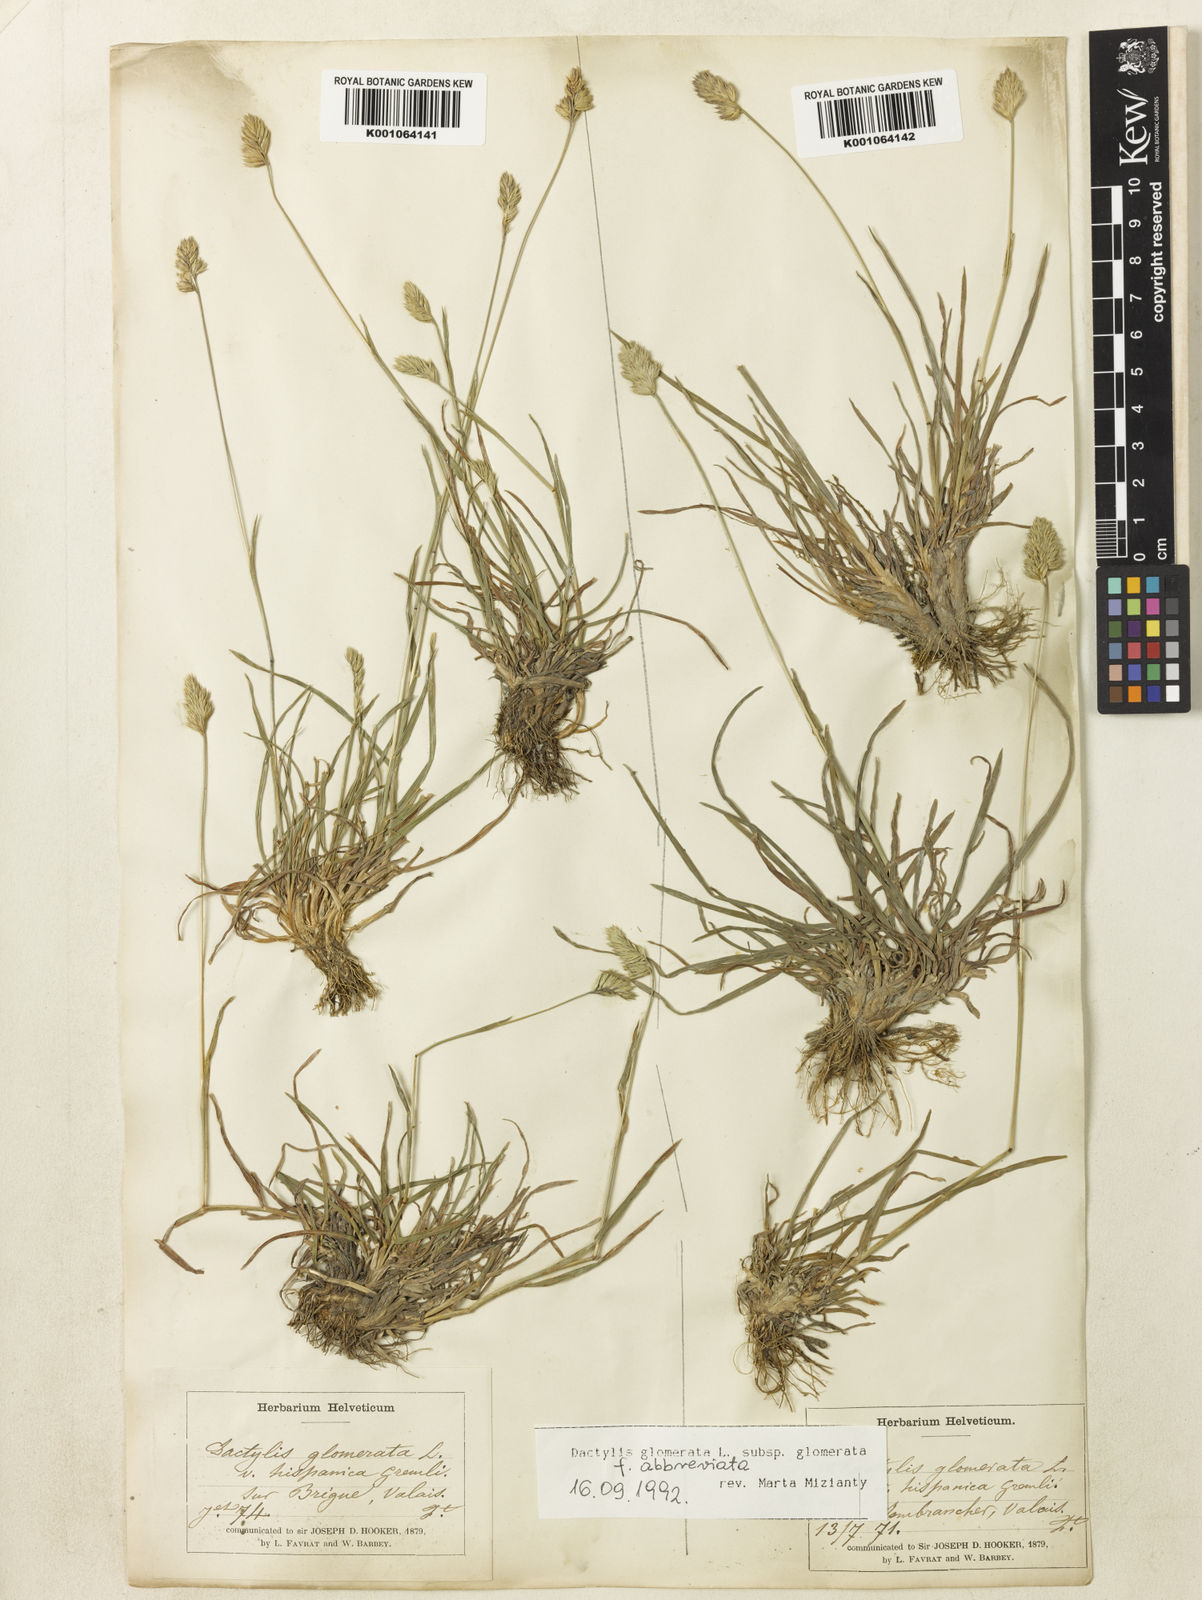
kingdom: Plantae
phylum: Tracheophyta
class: Liliopsida
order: Poales
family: Poaceae
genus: Dactylis
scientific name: Dactylis glomerata
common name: Orchardgrass
